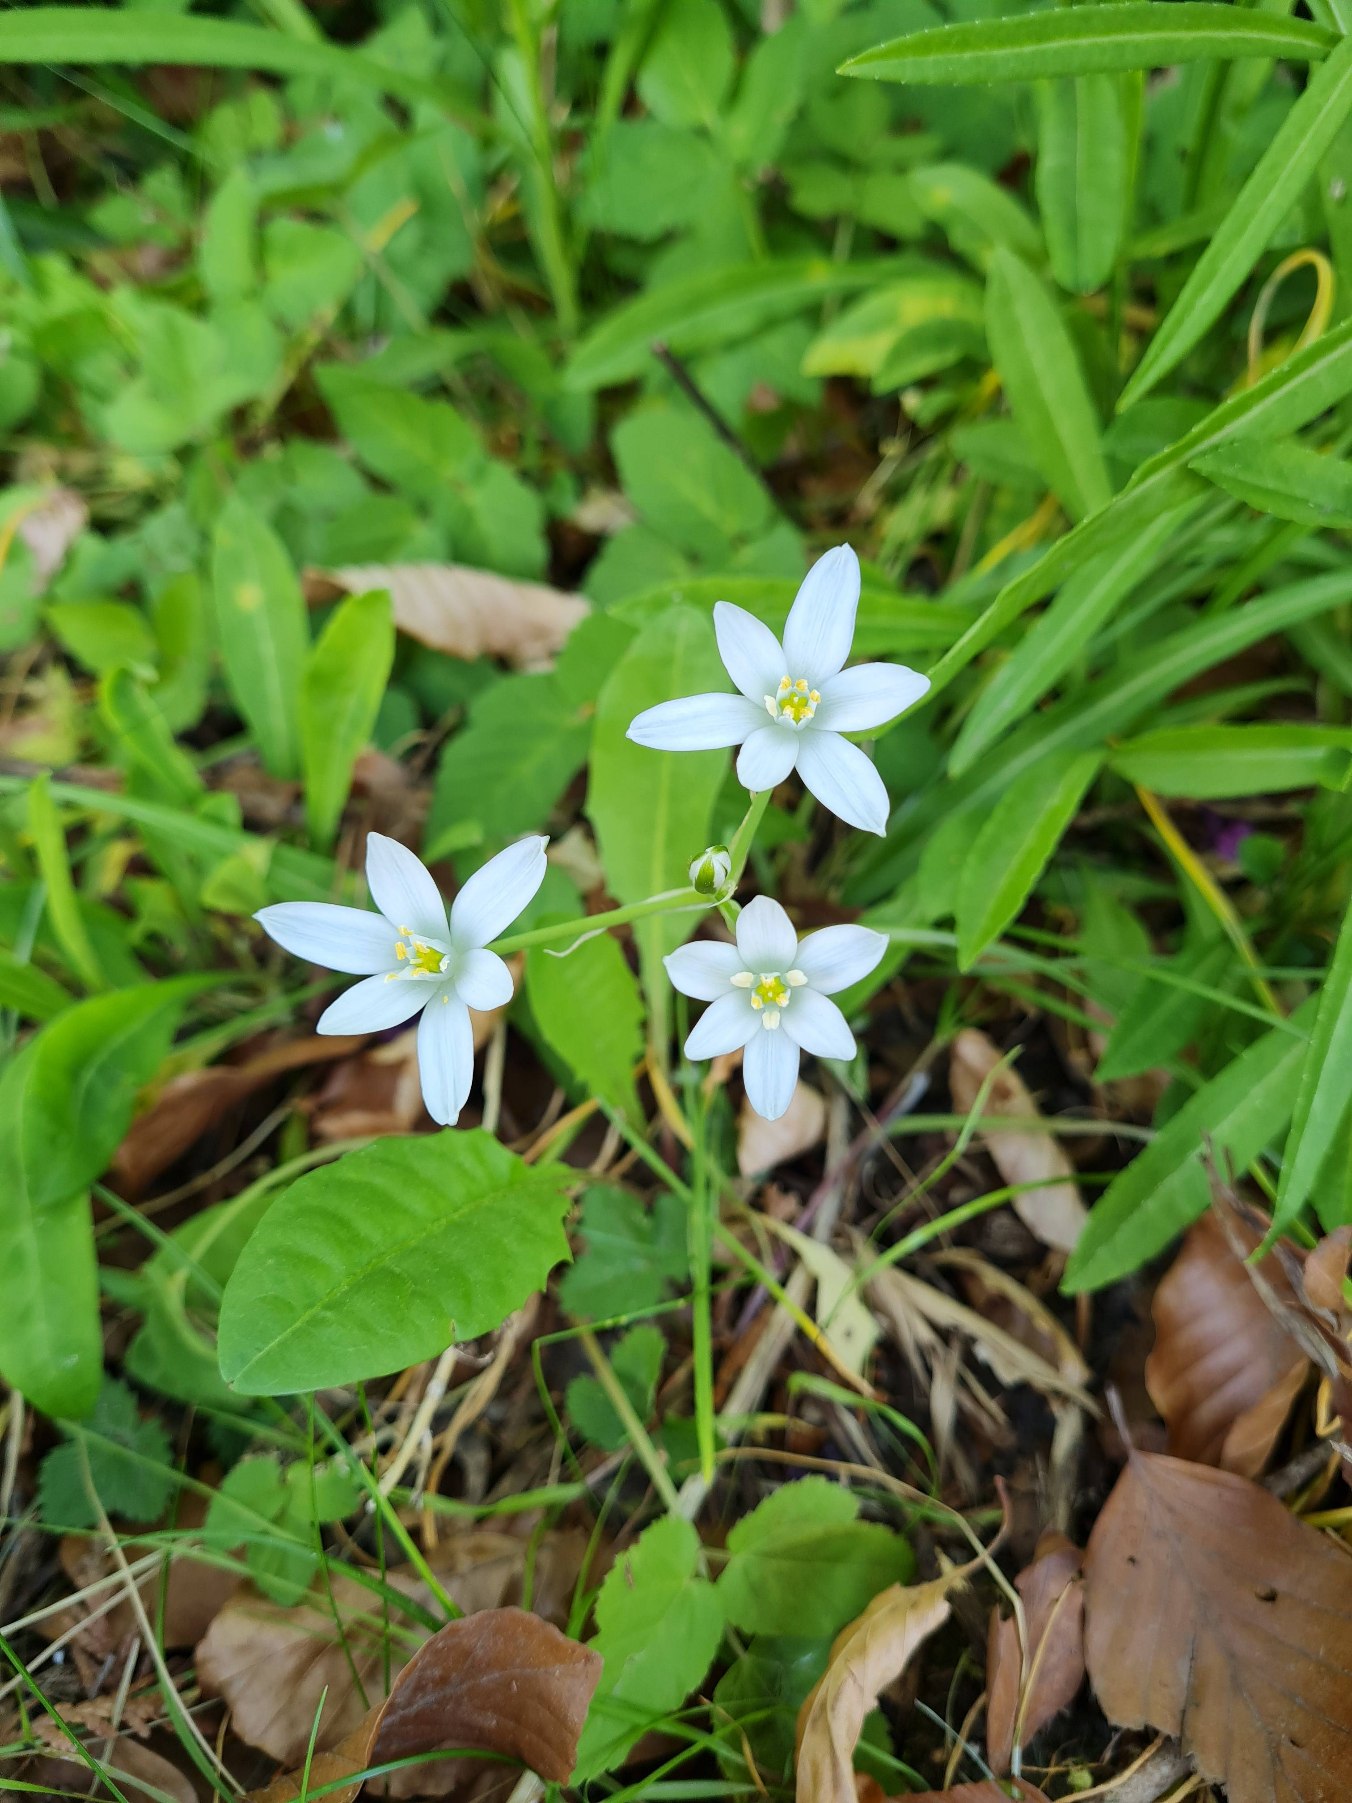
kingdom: Plantae
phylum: Tracheophyta
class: Liliopsida
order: Asparagales
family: Asparagaceae
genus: Ornithogalum
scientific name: Ornithogalum umbellatum
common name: Kost-fuglemælk
